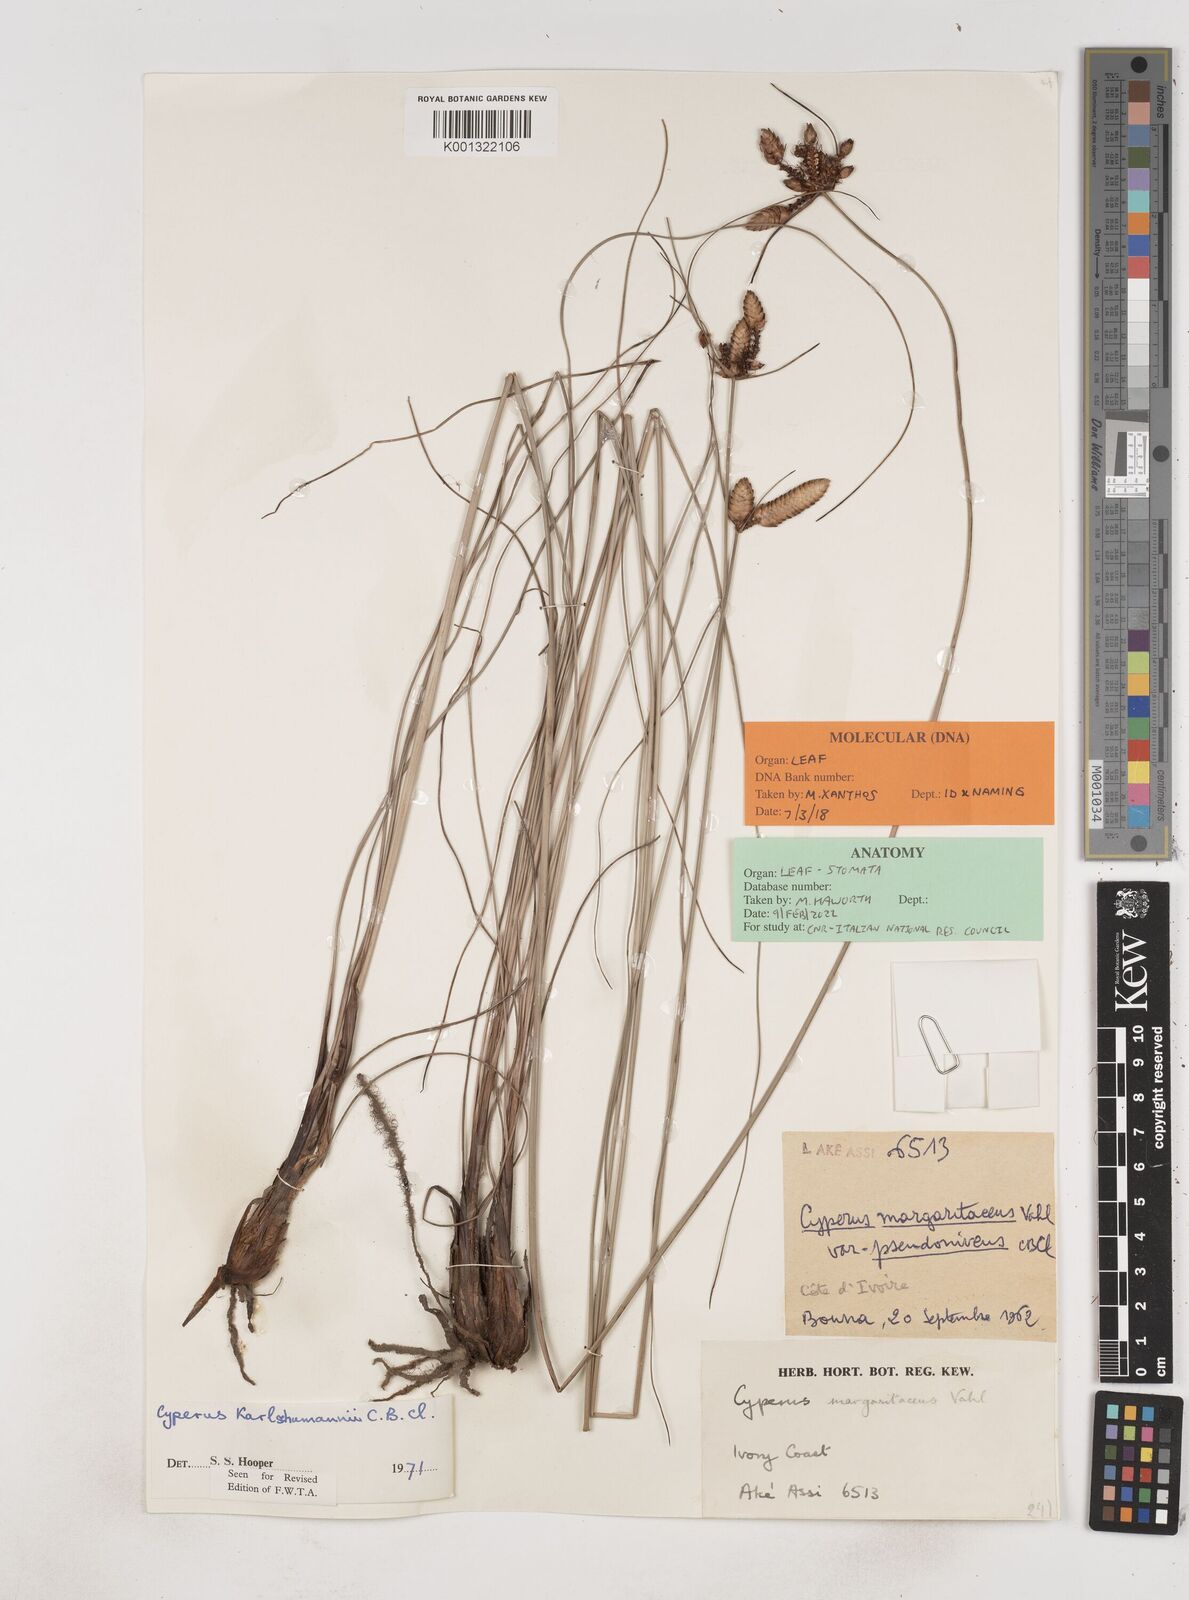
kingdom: Plantae
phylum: Tracheophyta
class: Liliopsida
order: Poales
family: Cyperaceae
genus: Cyperus
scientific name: Cyperus karlschumannii
